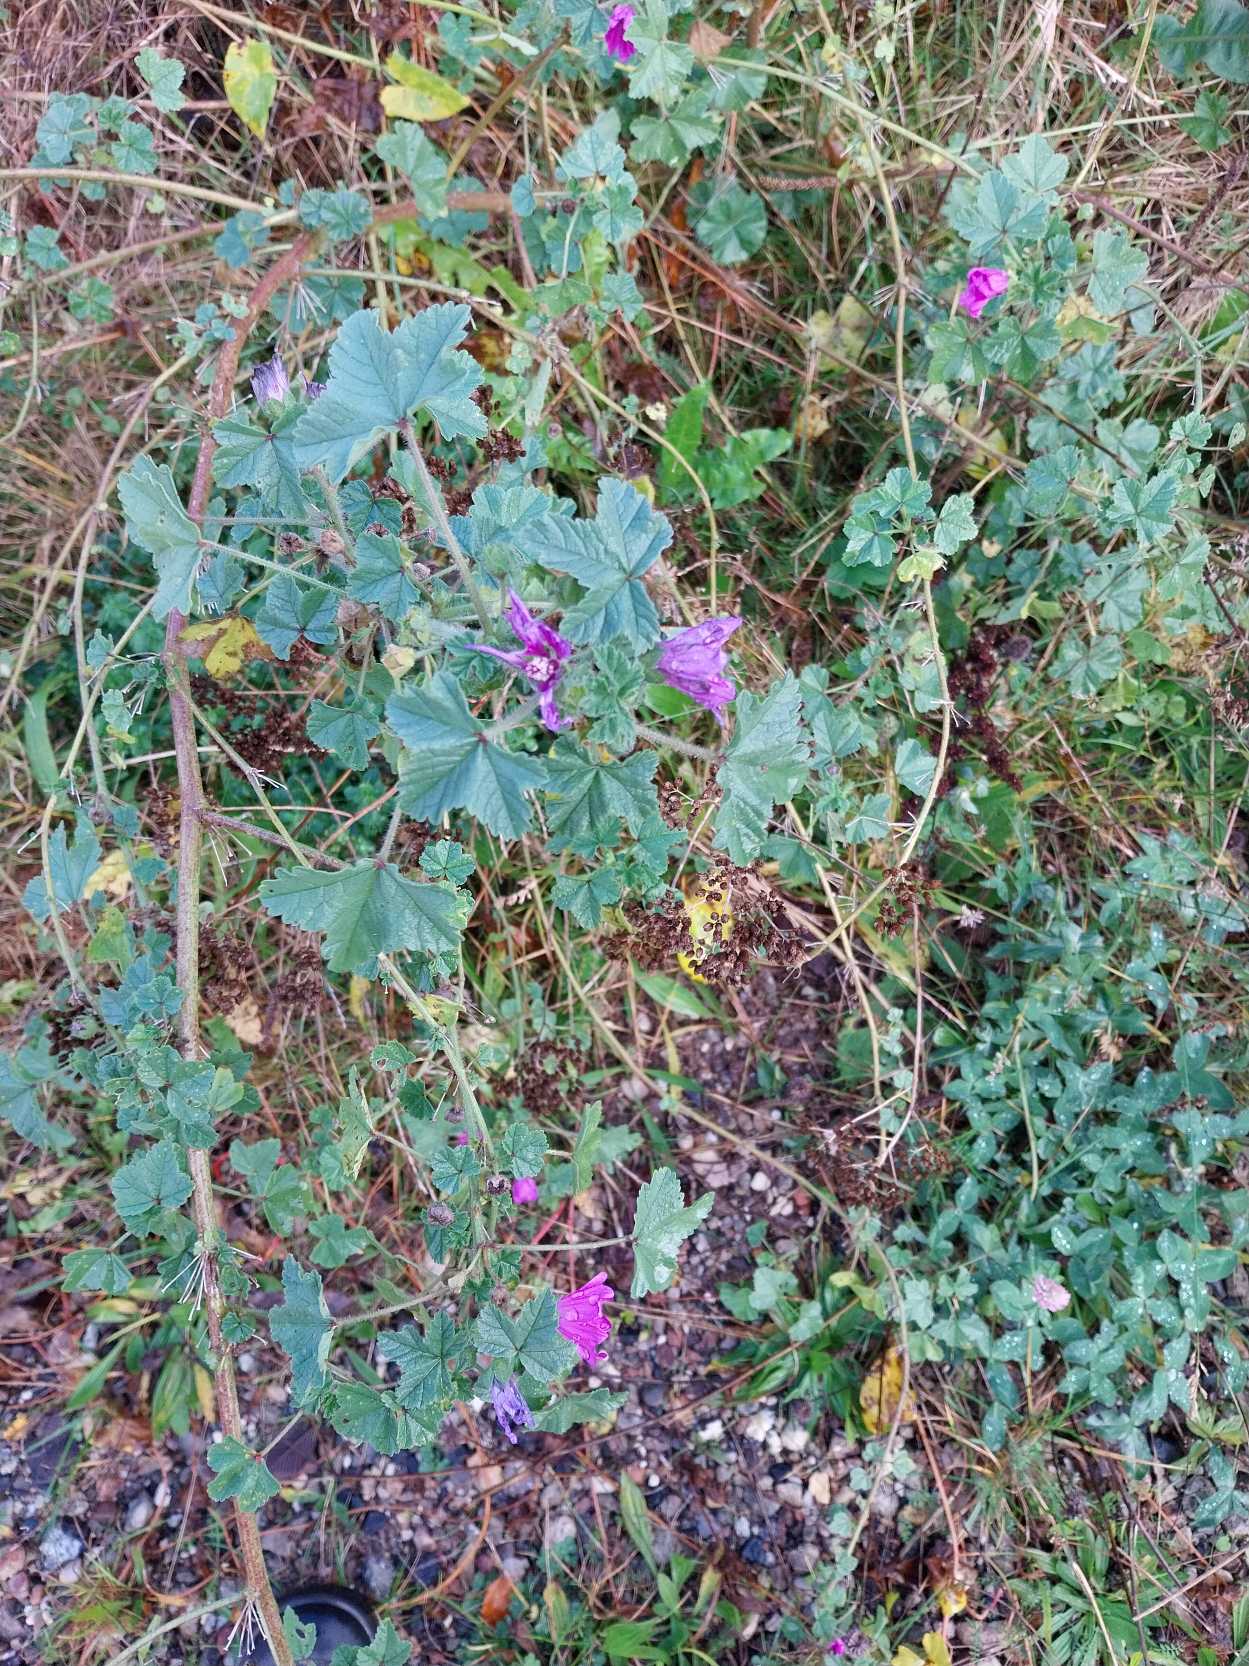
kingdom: Plantae
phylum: Tracheophyta
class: Magnoliopsida
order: Malvales
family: Malvaceae
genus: Malva
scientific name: Malva sylvestris
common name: Almindelig katost
